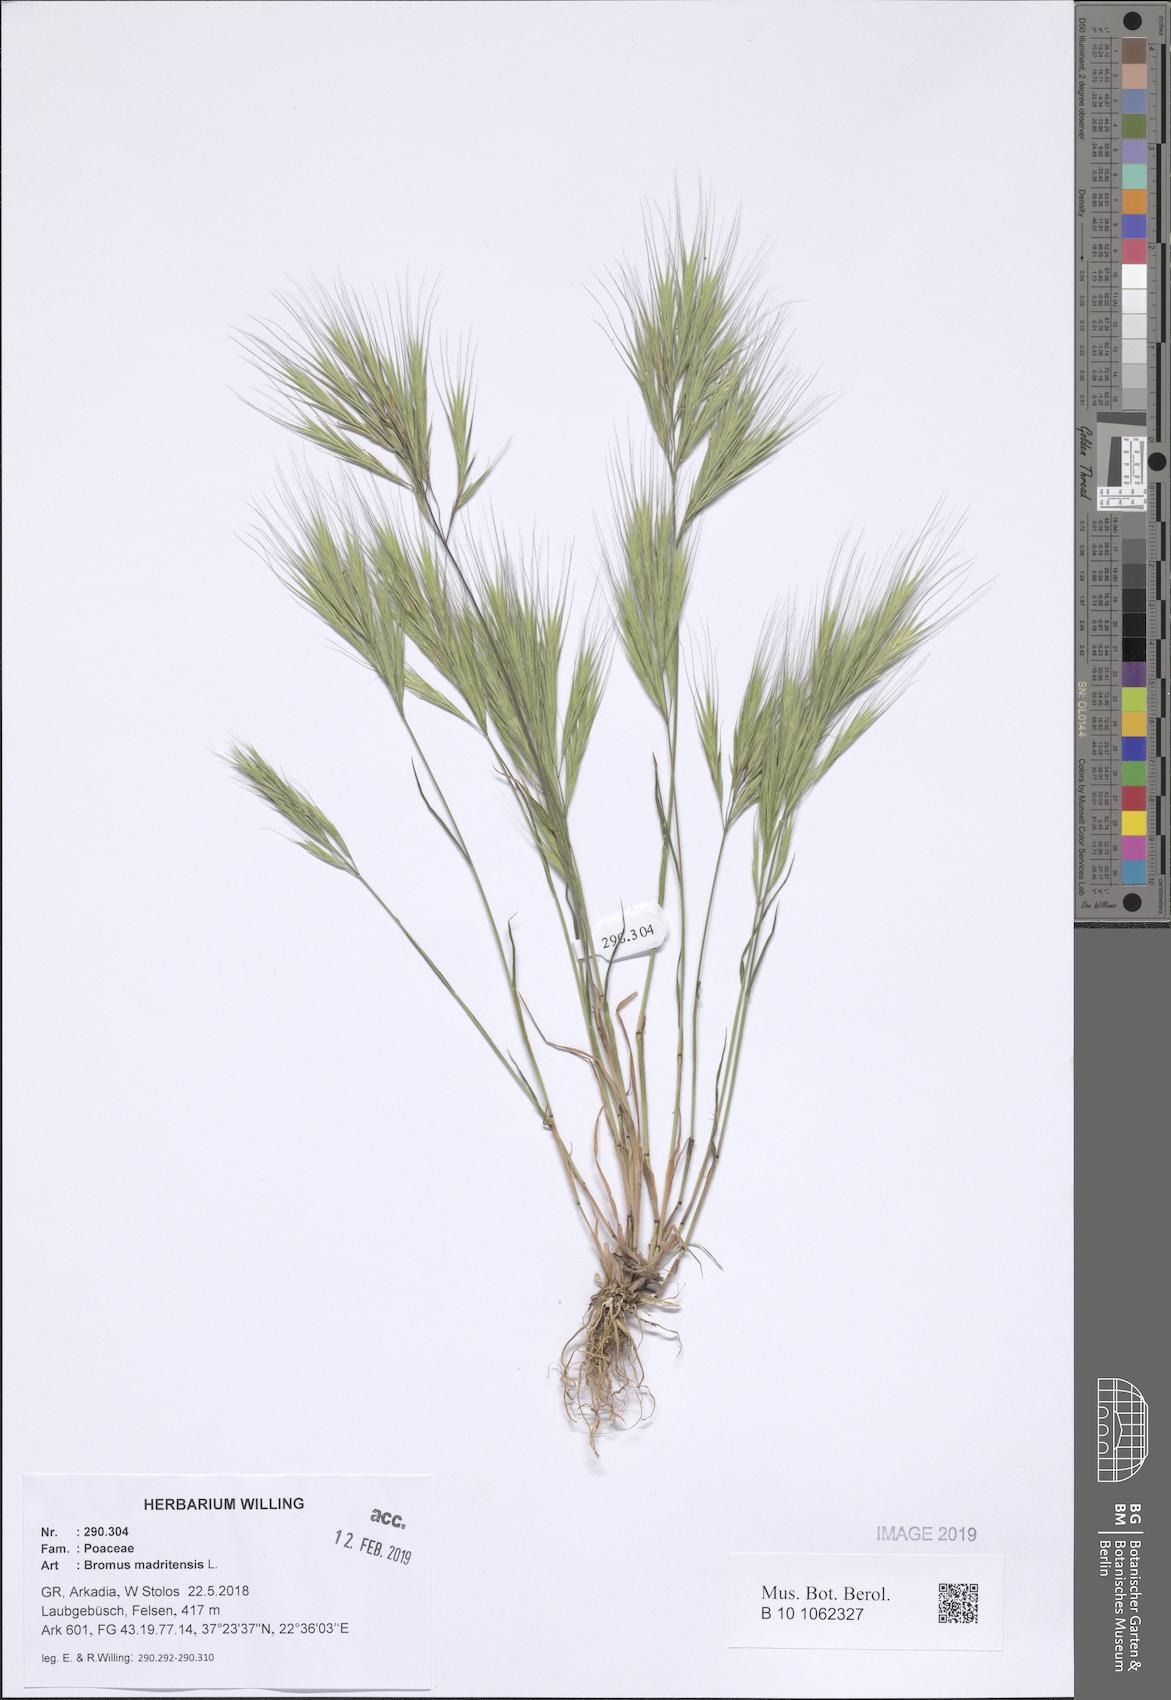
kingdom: Plantae
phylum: Tracheophyta
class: Liliopsida
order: Poales
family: Poaceae
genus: Bromus
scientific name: Bromus madritensis
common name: Compact brome
